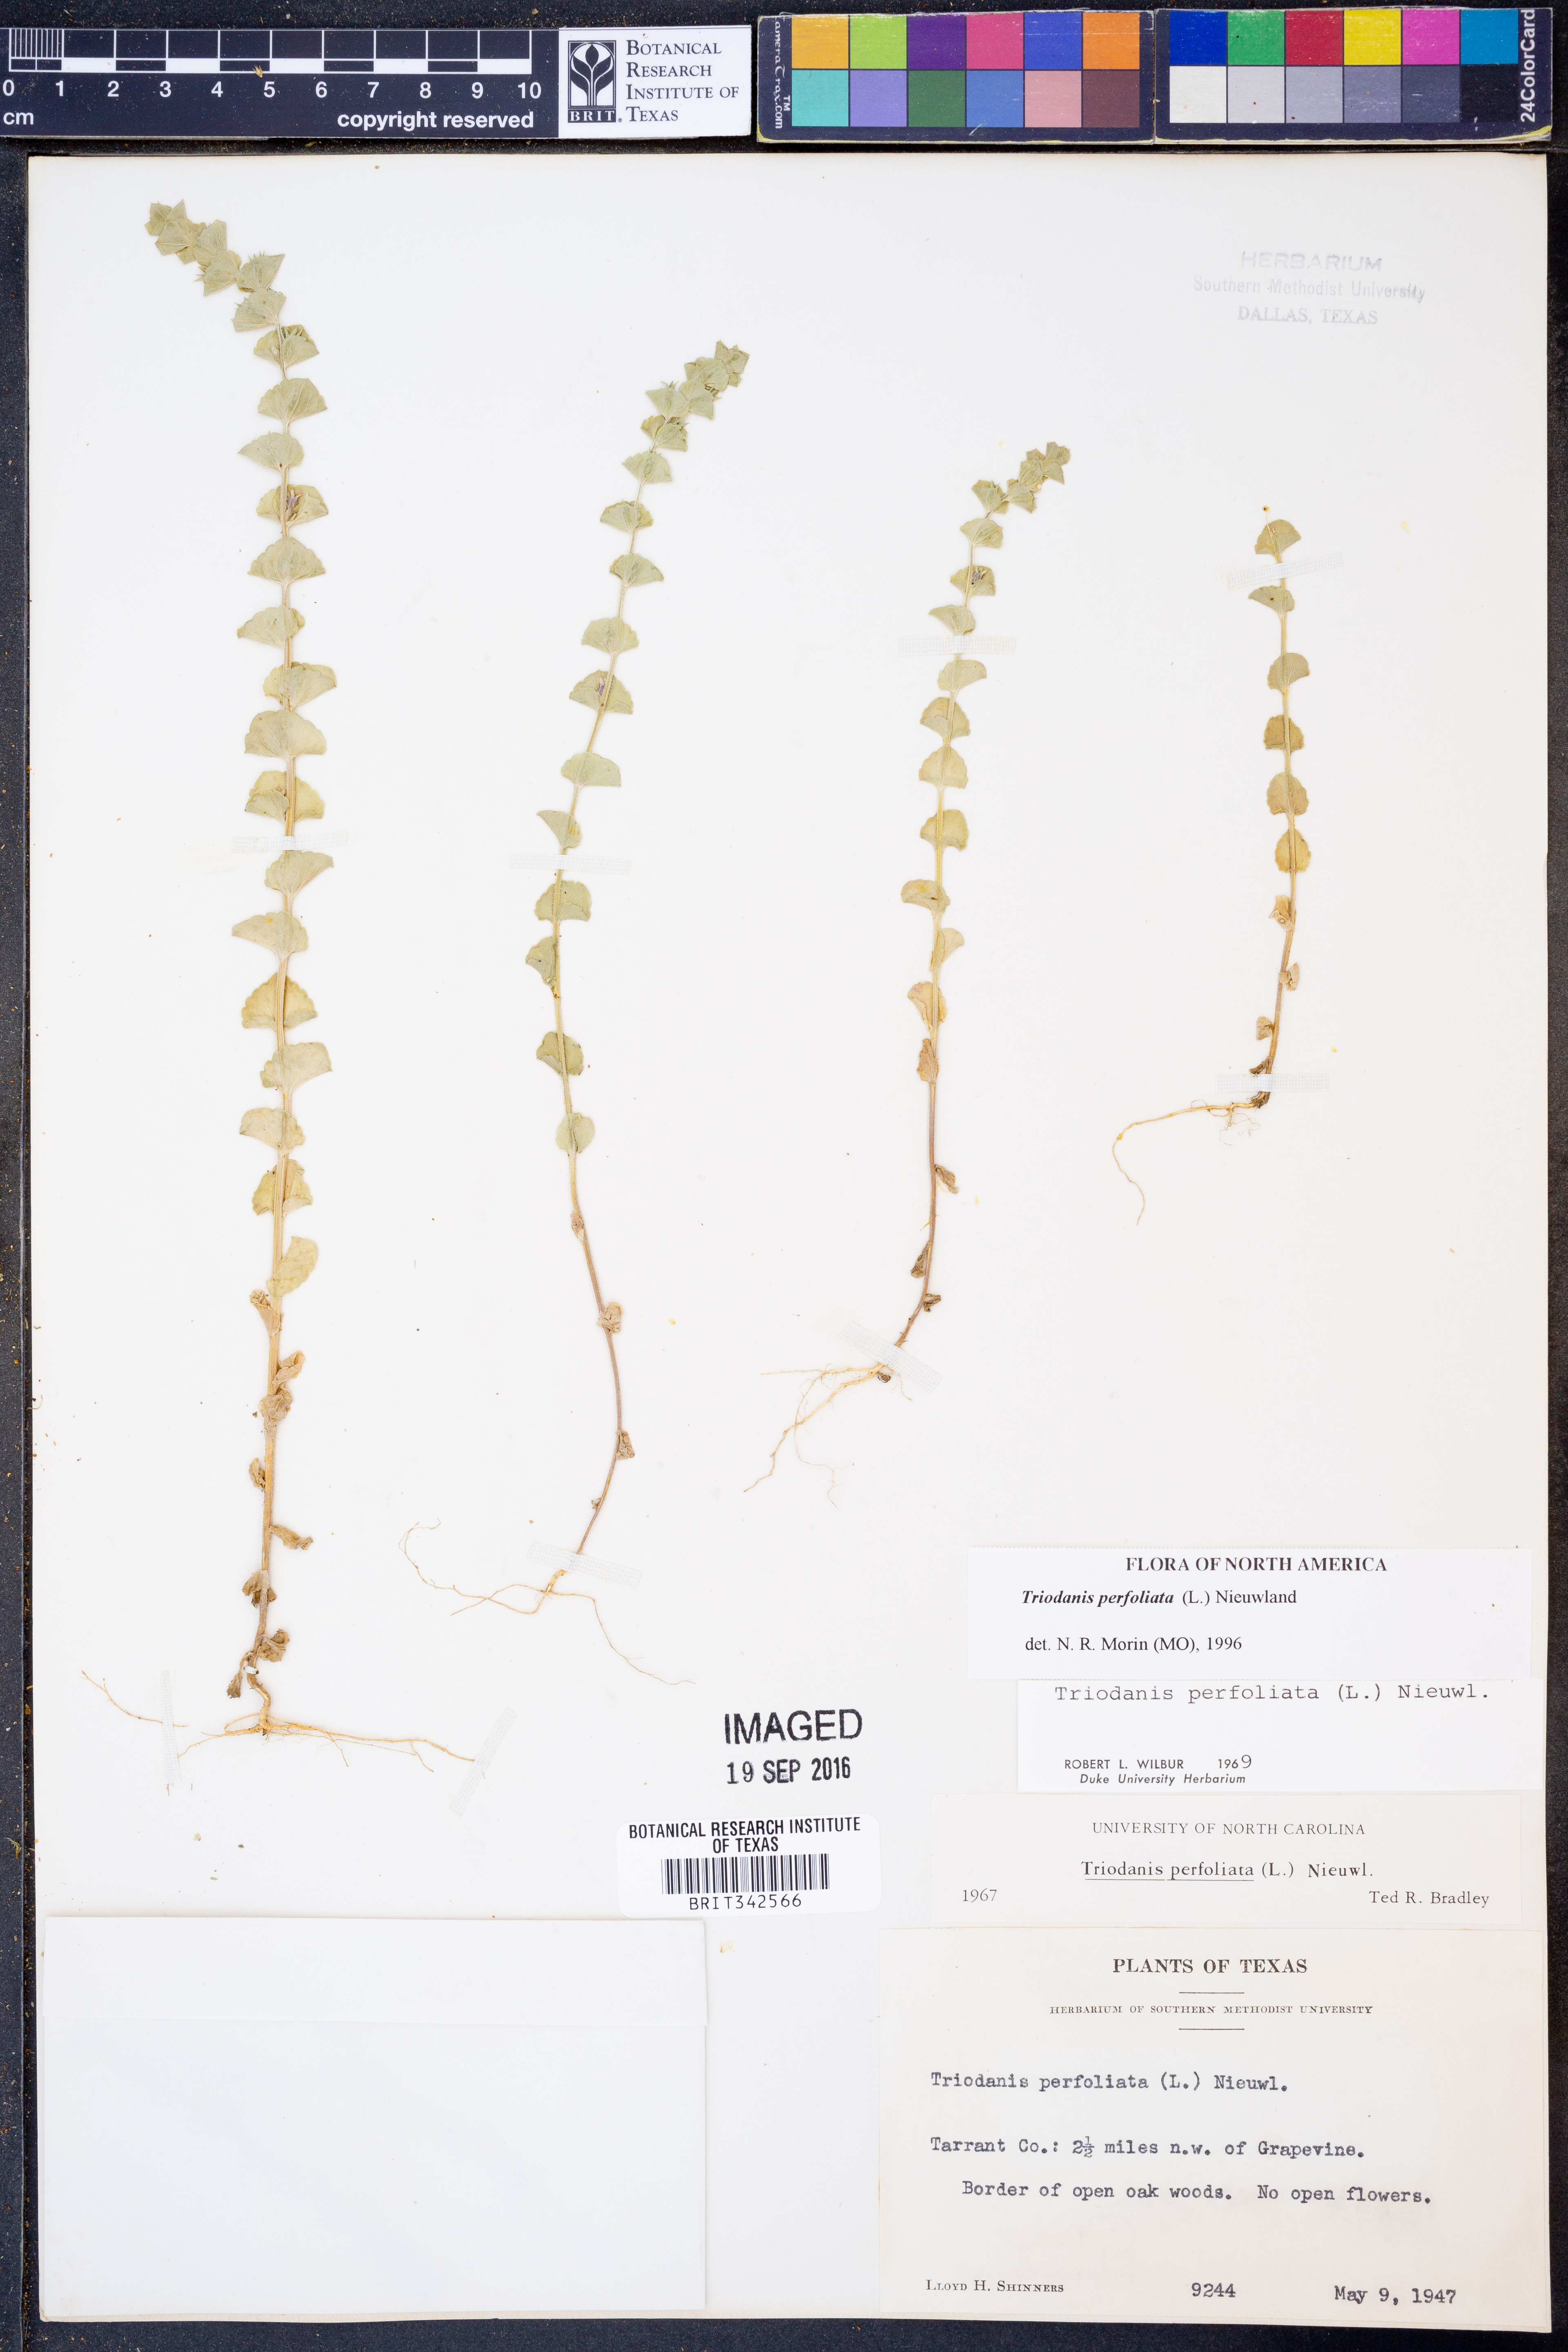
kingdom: Plantae
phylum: Tracheophyta
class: Magnoliopsida
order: Asterales
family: Campanulaceae
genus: Triodanis
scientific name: Triodanis perfoliata
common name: Clasping venus' looking-glass
